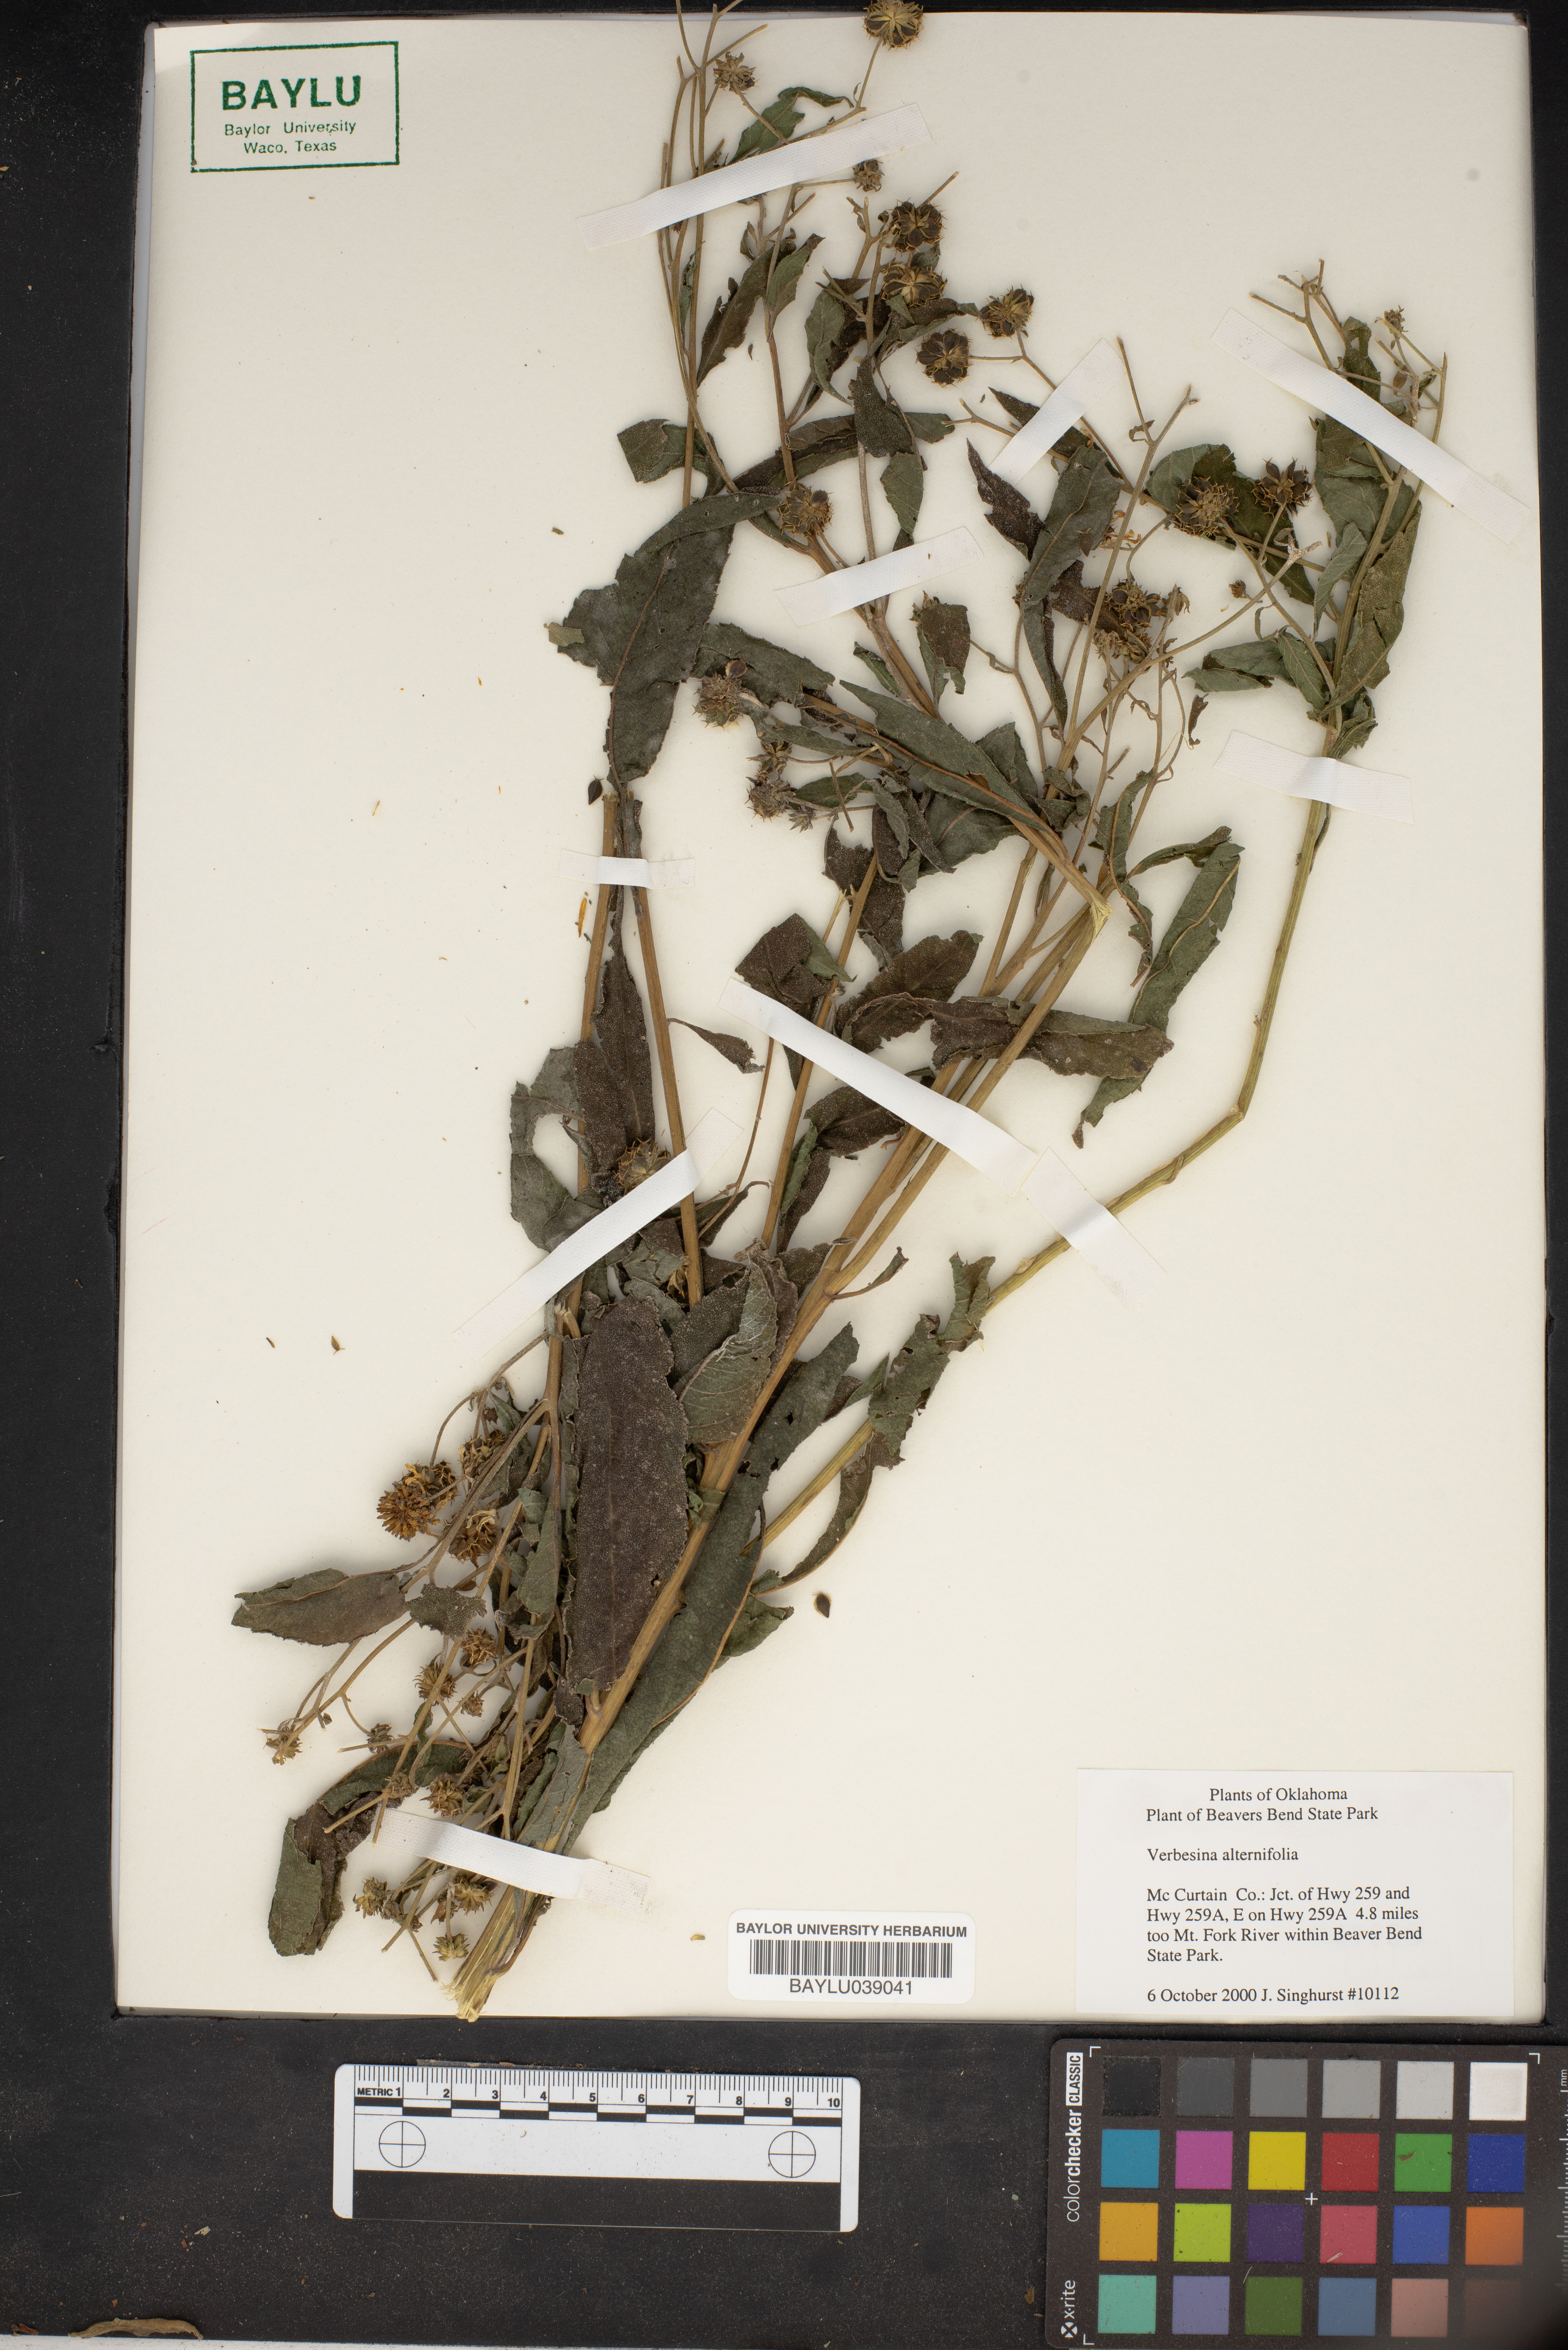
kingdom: Plantae
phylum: Tracheophyta
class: Magnoliopsida
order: Asterales
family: Asteraceae
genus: Verbesina
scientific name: Verbesina alternifolia
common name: Wingstem
